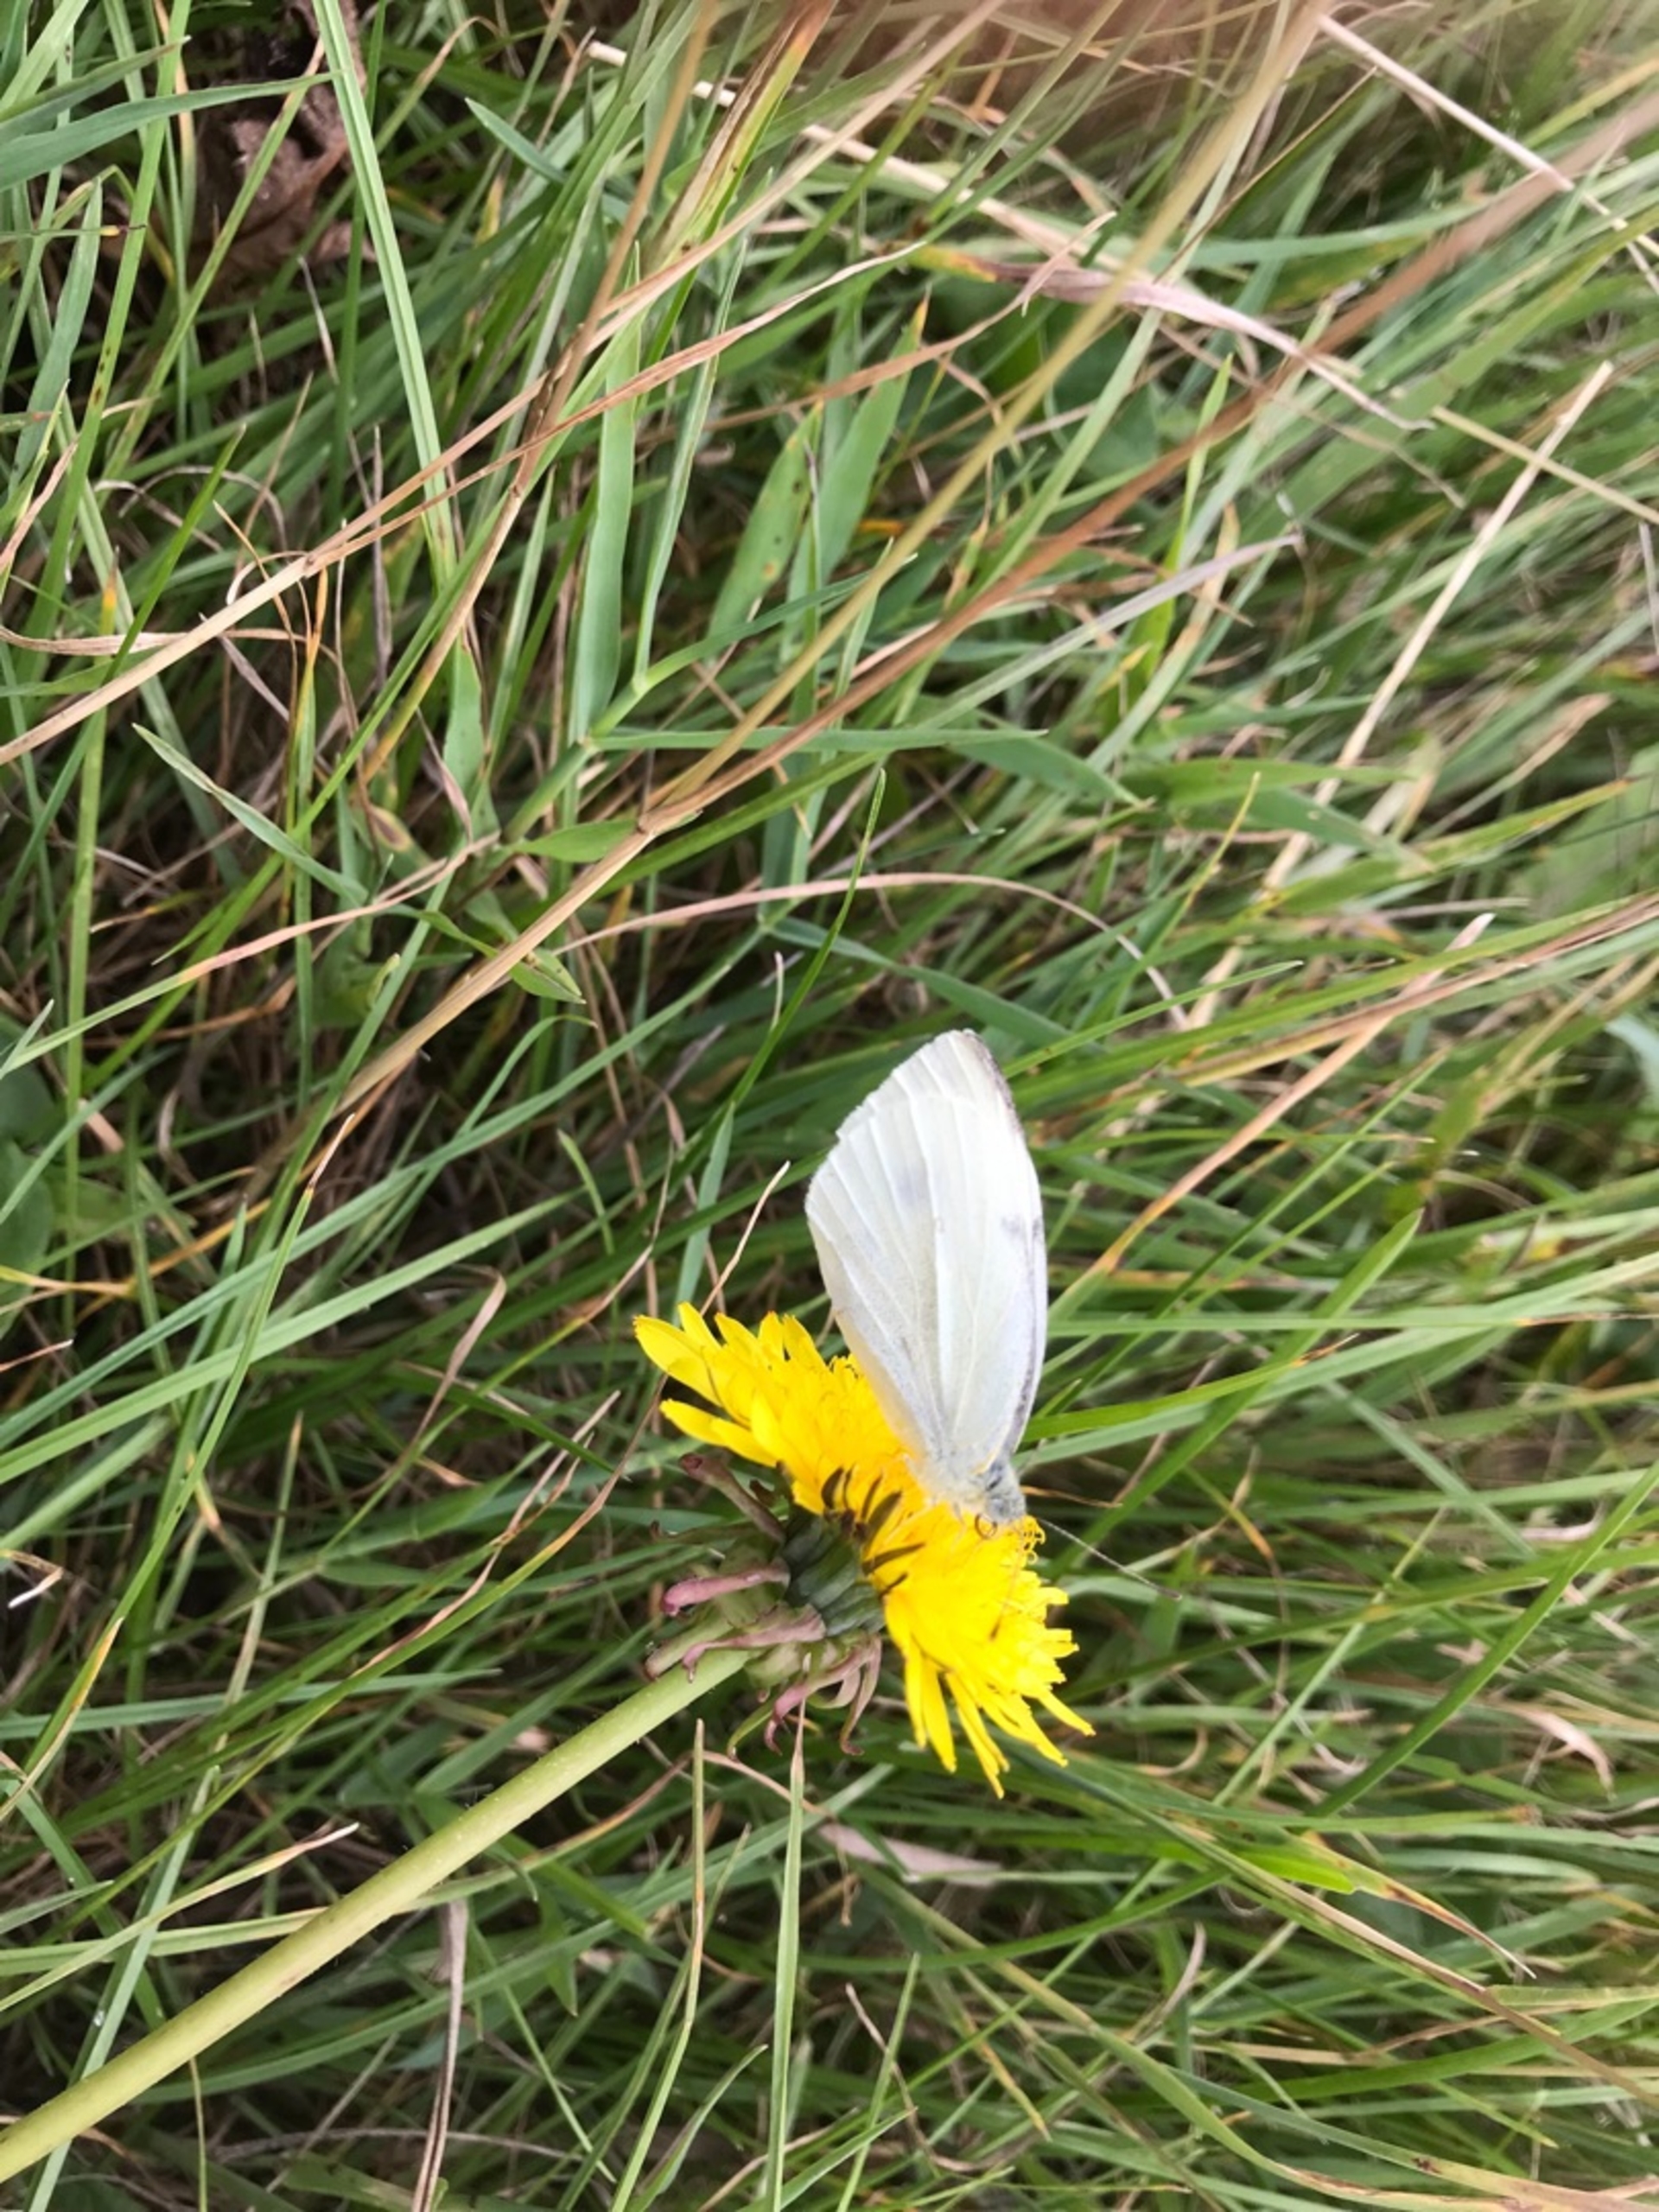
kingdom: Animalia
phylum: Arthropoda
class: Insecta
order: Lepidoptera
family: Pieridae
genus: Pieris
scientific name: Pieris rapae
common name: Lille kålsommerfugl
